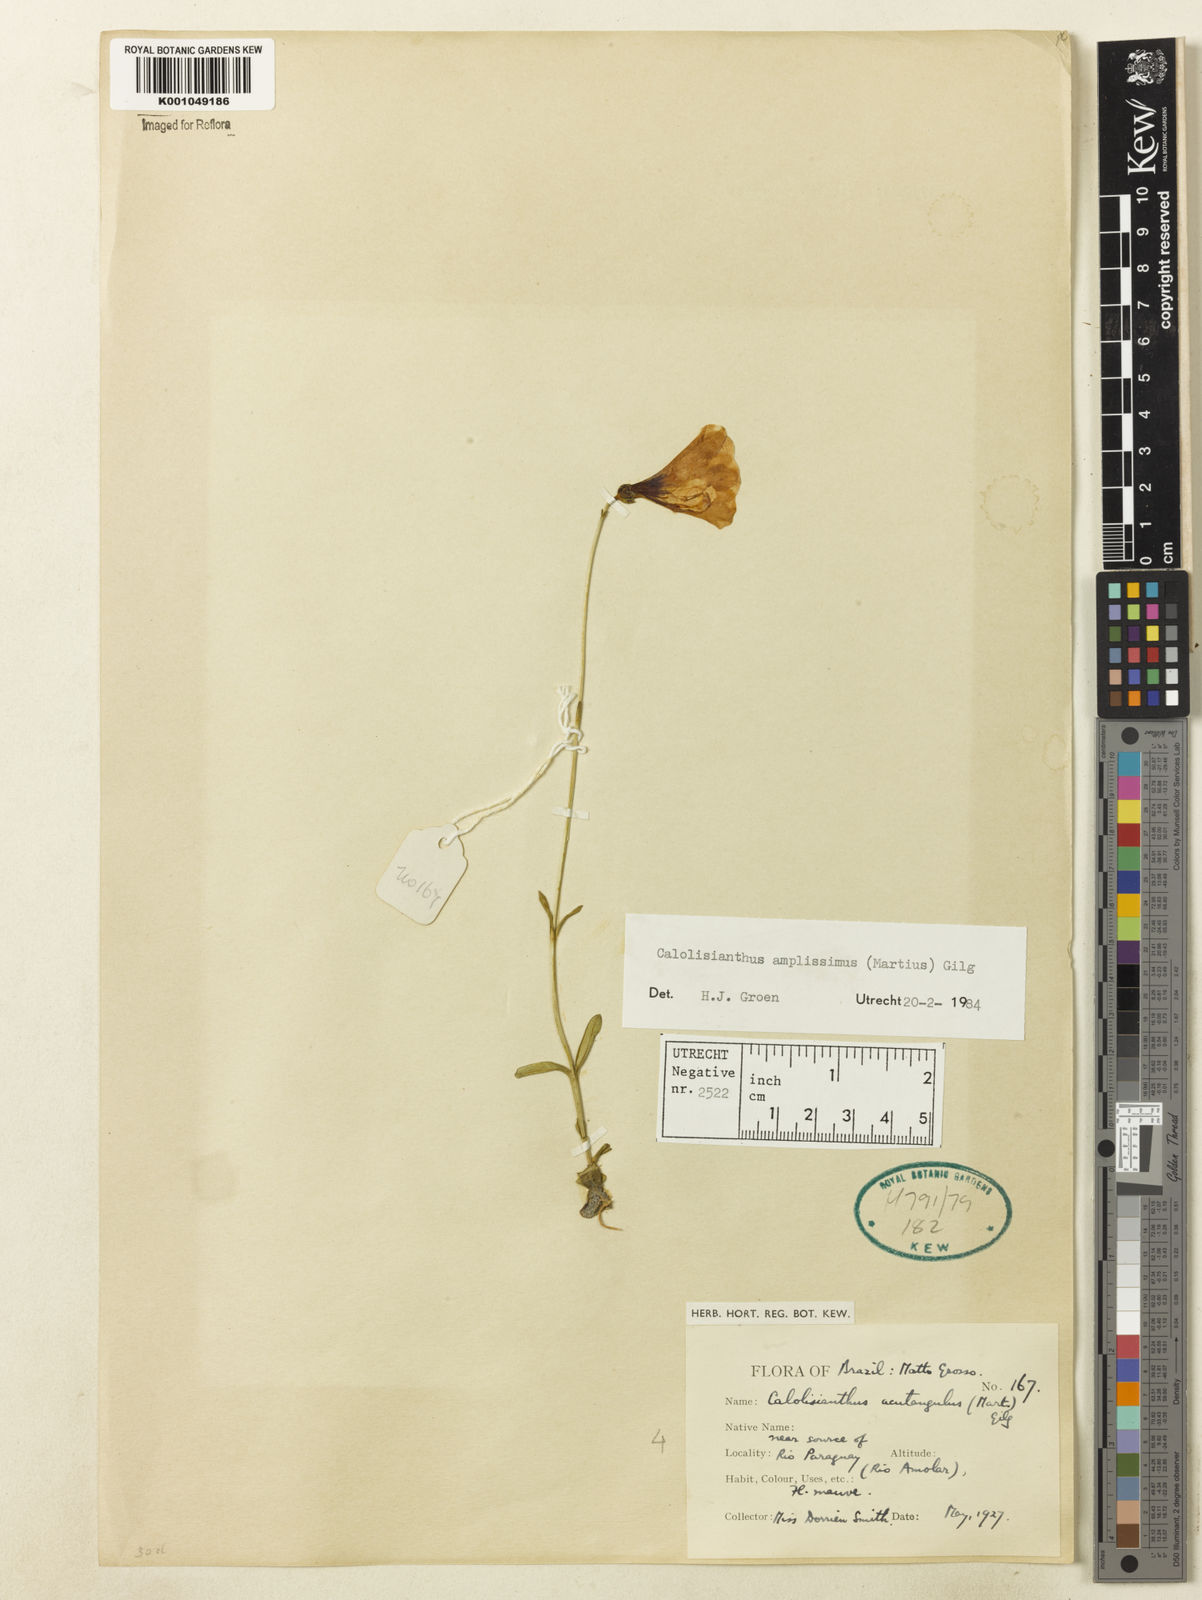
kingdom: Plantae
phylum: Tracheophyta
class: Magnoliopsida
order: Gentianales
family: Gentianaceae
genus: Calolisianthus
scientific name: Calolisianthus amplissimus
